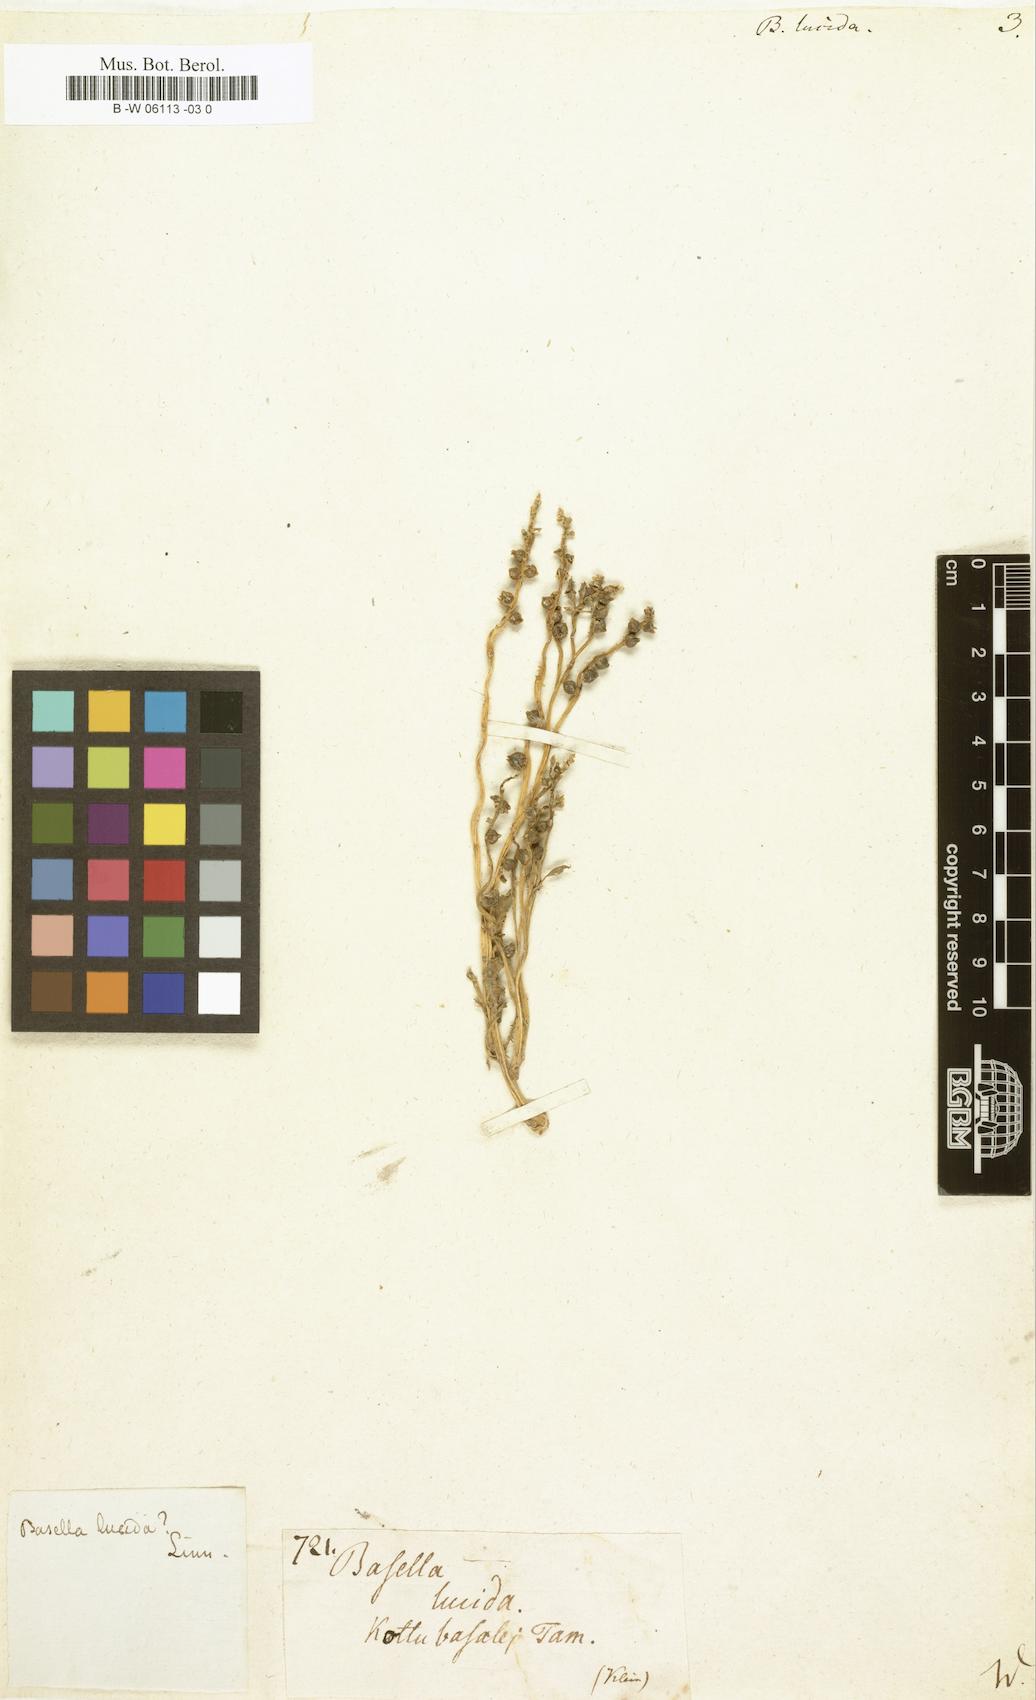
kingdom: Plantae
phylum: Tracheophyta
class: Magnoliopsida
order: Caryophyllales
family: Basellaceae
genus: Basella
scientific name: Basella alba
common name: Indian spinach
